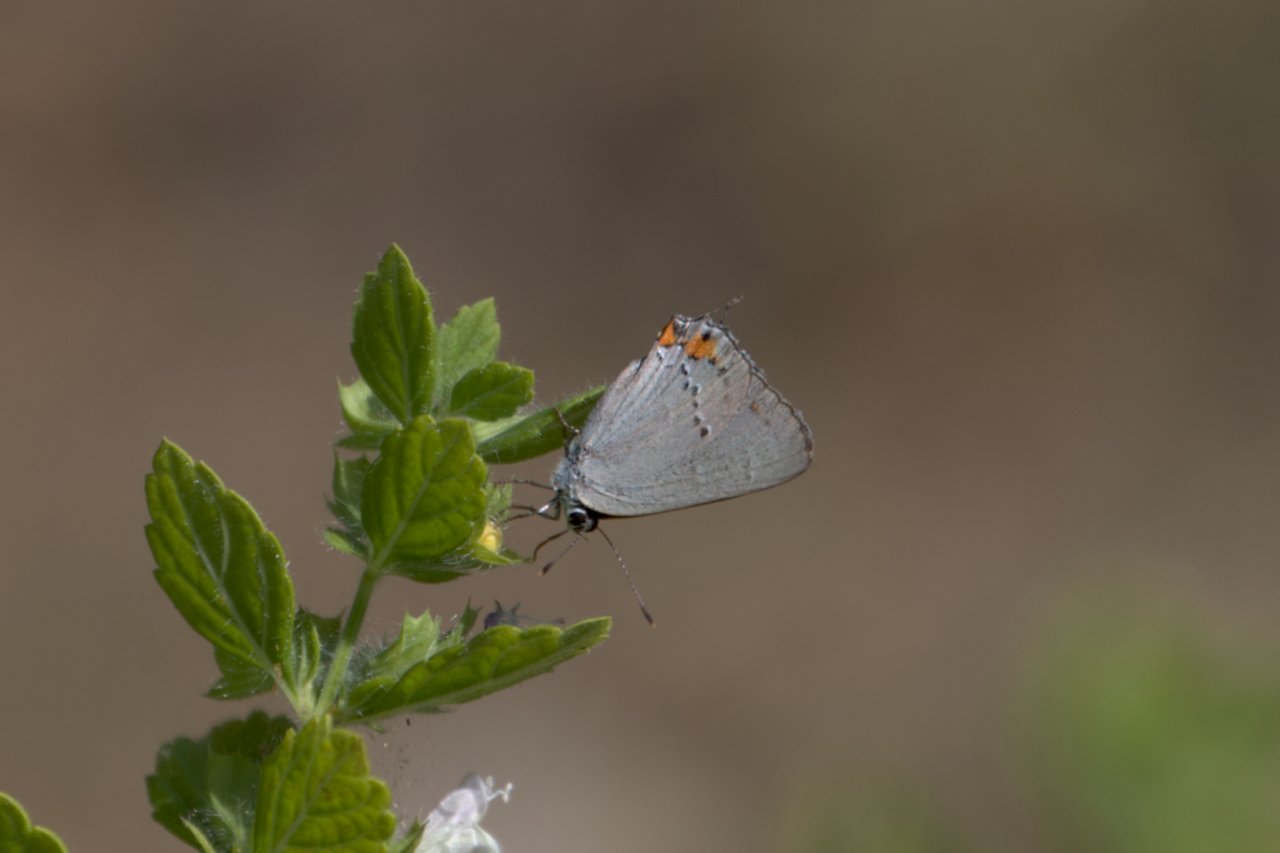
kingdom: Animalia
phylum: Arthropoda
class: Insecta
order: Lepidoptera
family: Lycaenidae
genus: Strymon
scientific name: Strymon melinus
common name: Gray Hairstreak
